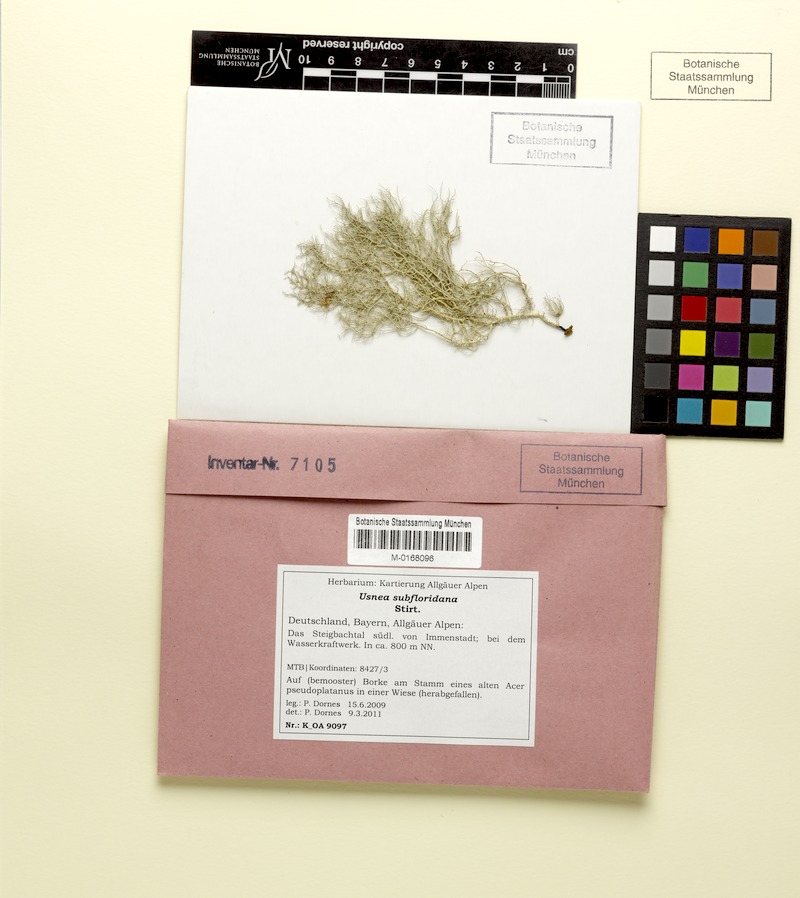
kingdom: Fungi
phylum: Ascomycota
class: Lecanoromycetes
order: Lecanorales
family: Parmeliaceae
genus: Usnea
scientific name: Usnea subfloridana
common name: Boreal beard lichen
